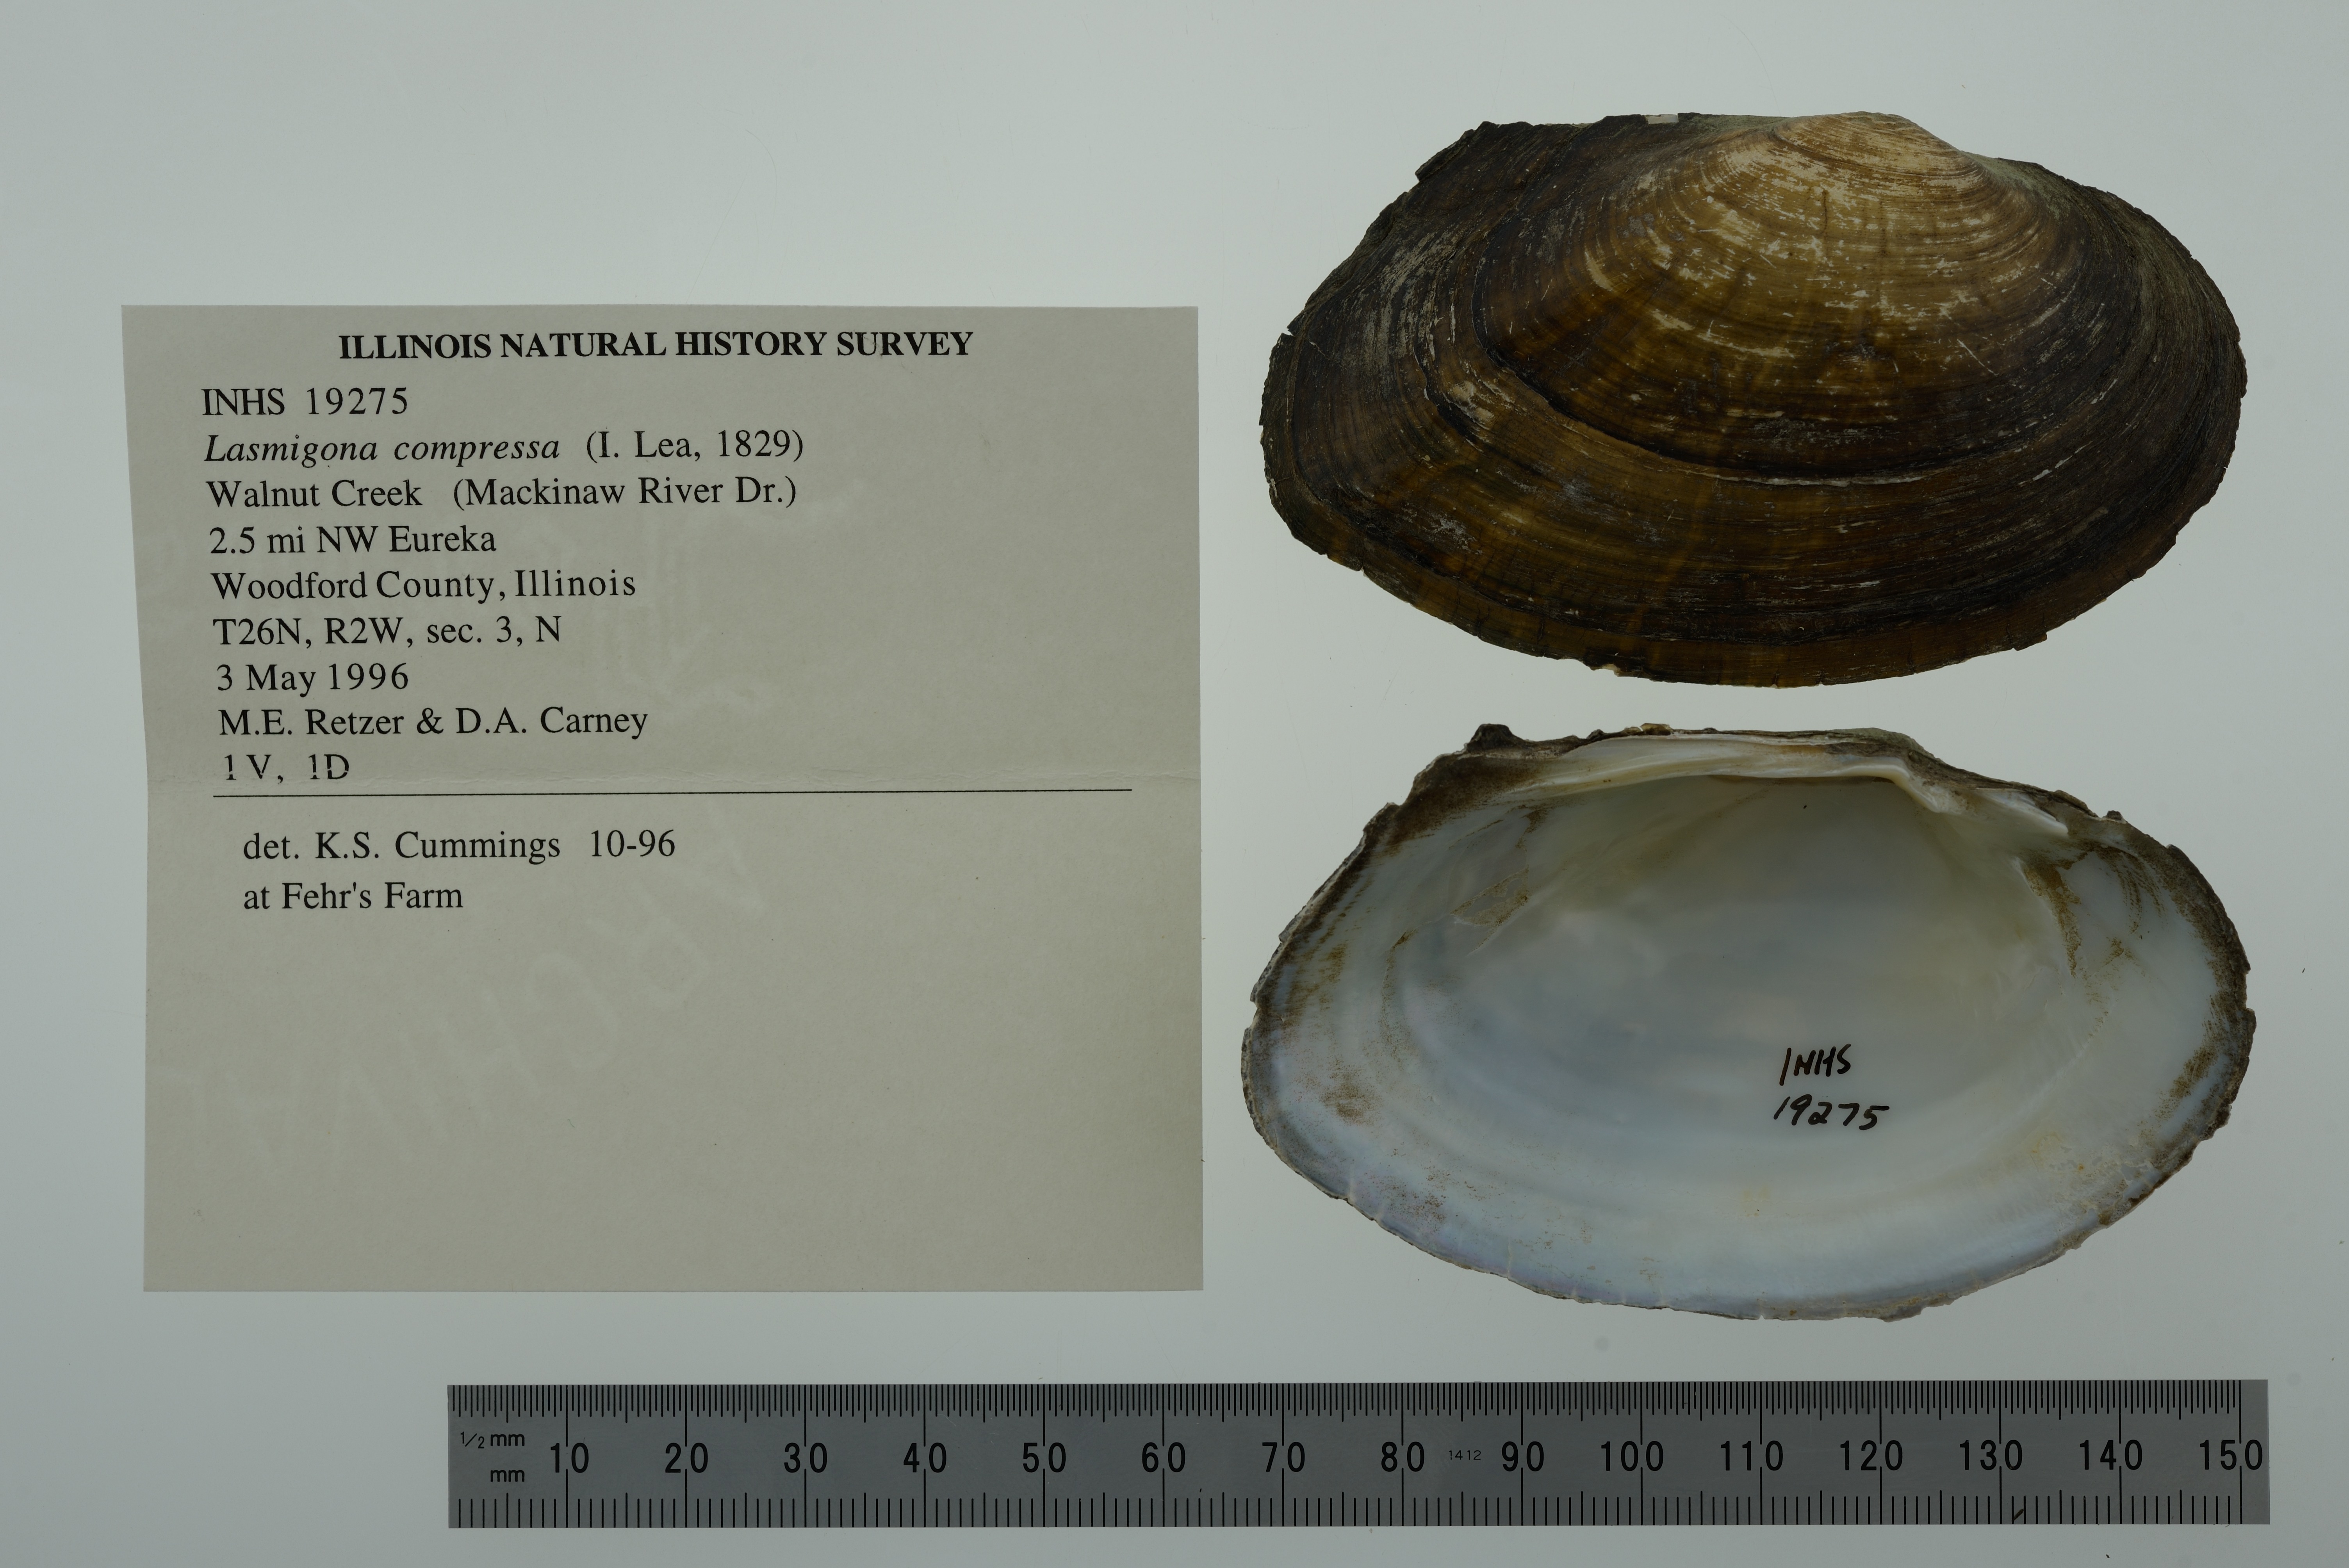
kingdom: Animalia
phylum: Mollusca
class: Bivalvia
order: Unionida
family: Unionidae
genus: Lasmigona
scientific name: Lasmigona compressa
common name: Creek heelsplitter
